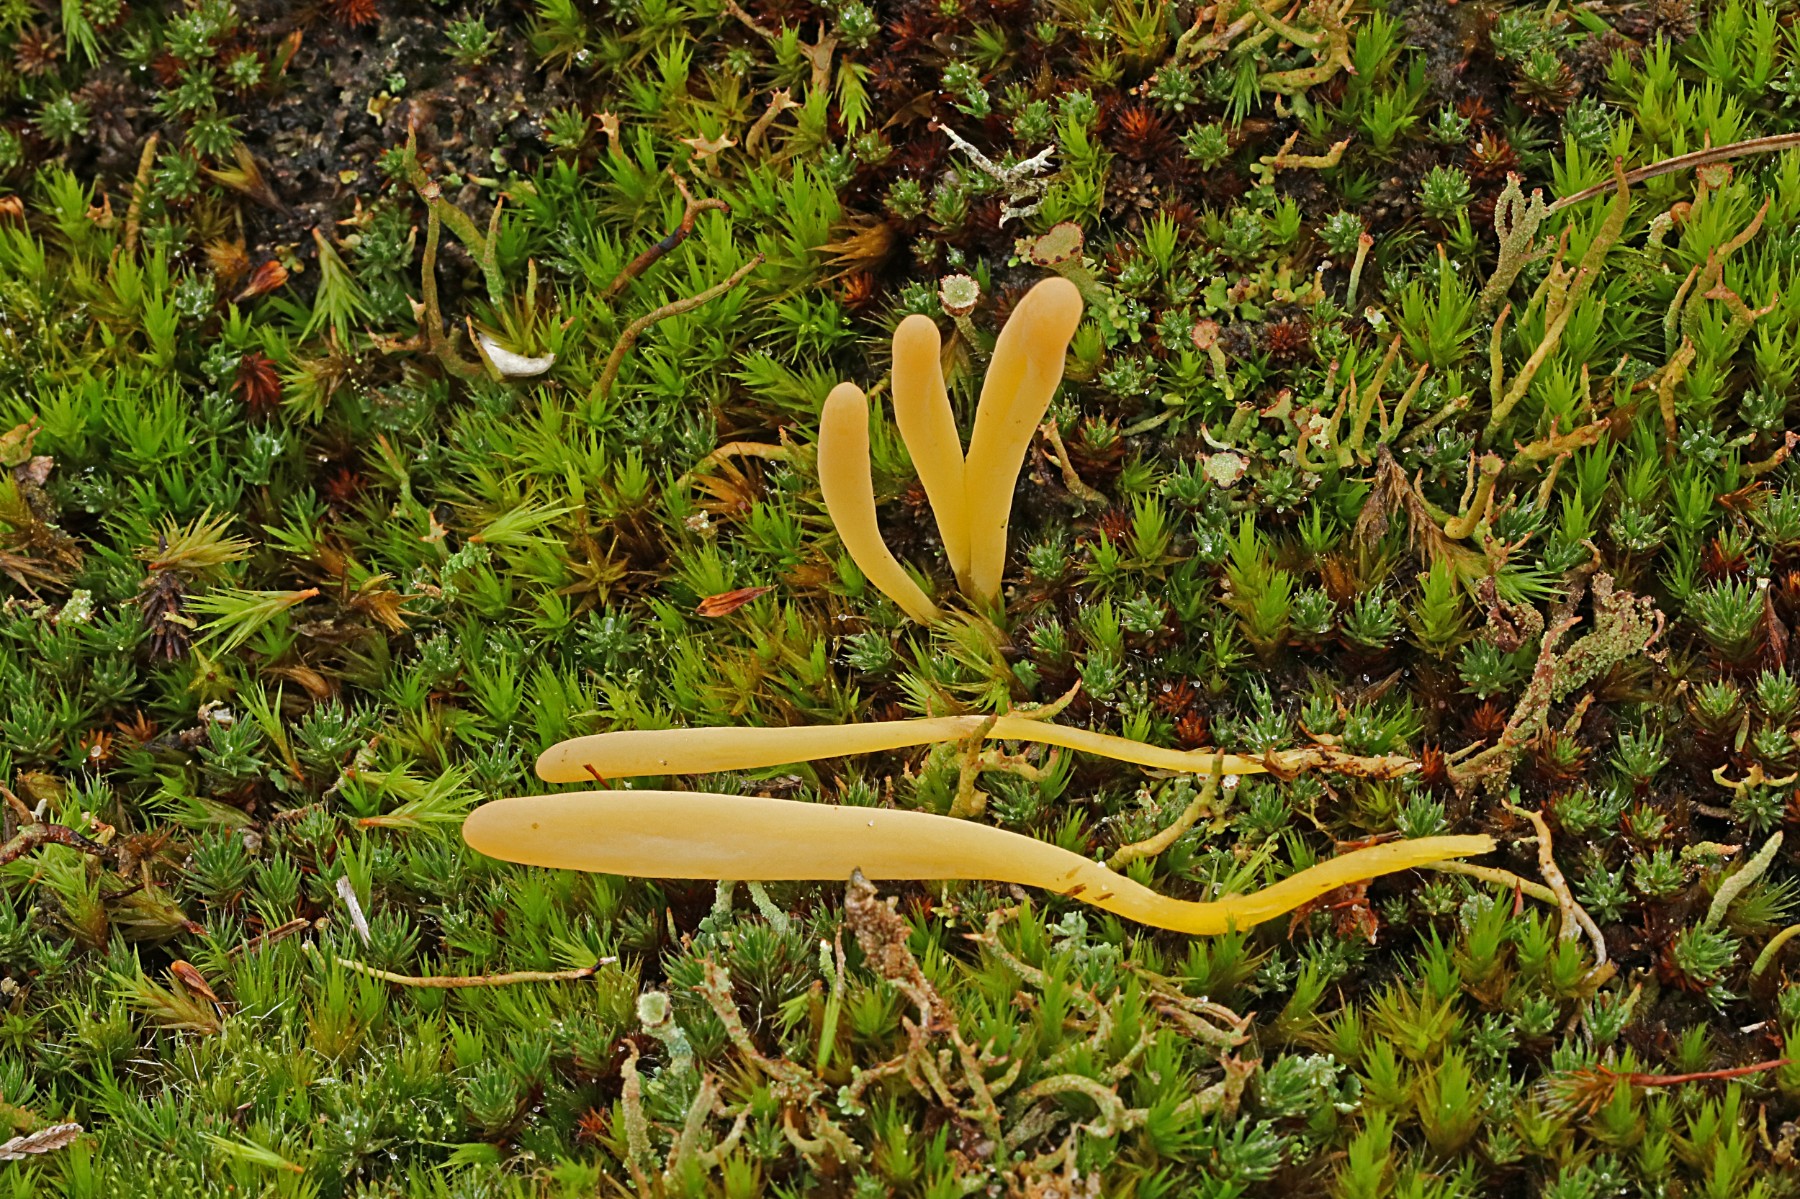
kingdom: Fungi
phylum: Basidiomycota
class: Agaricomycetes
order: Agaricales
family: Clavariaceae
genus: Clavaria
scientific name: Clavaria argillacea
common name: lerfarvet køllesvamp
